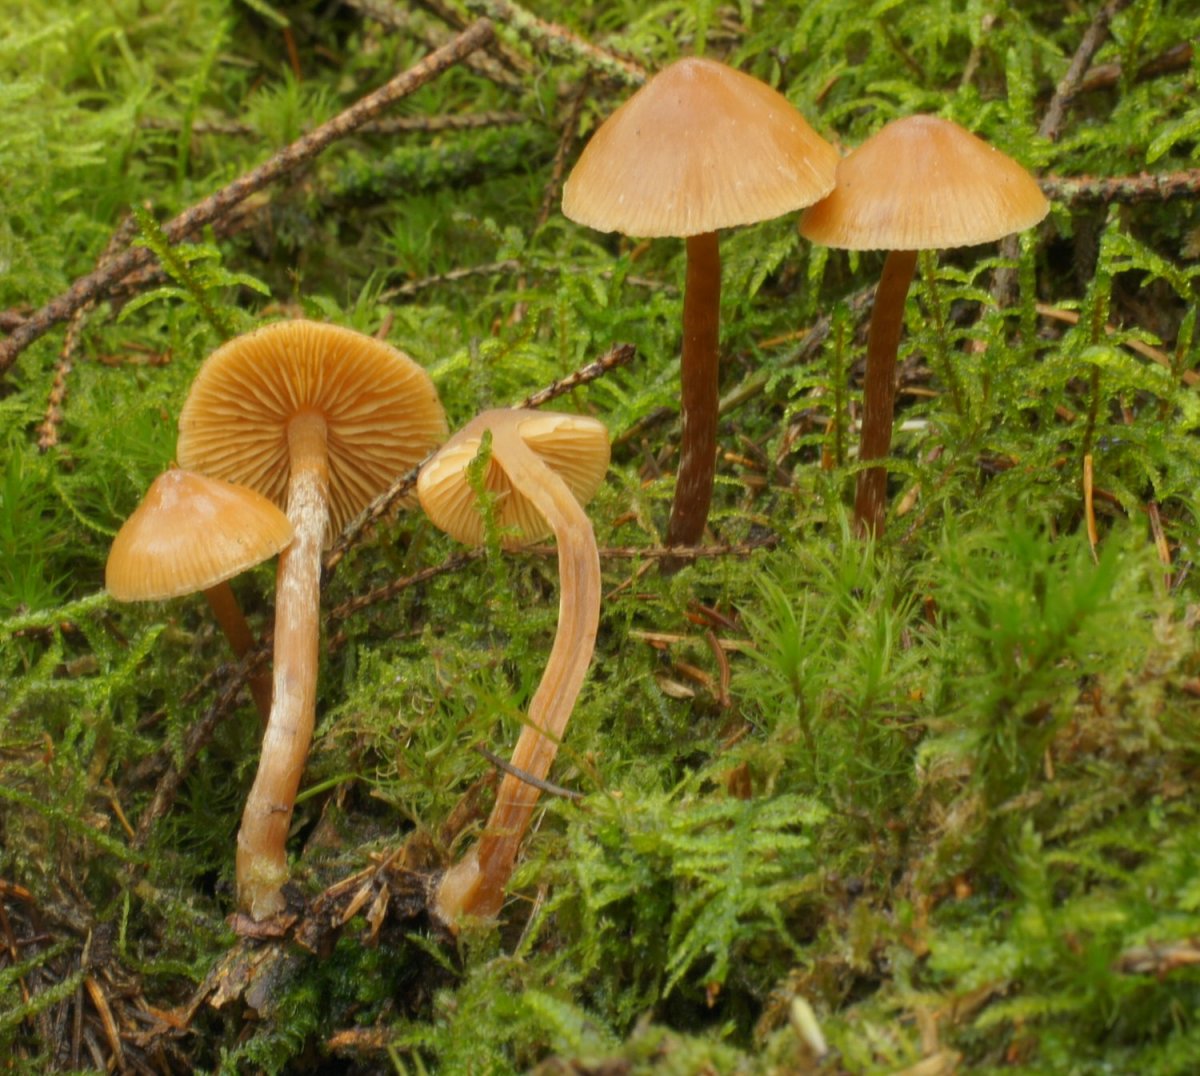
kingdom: Fungi
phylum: Basidiomycota
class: Agaricomycetes
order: Agaricales
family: Hymenogastraceae
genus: Galerina
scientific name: Galerina sideroides
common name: træflis-hjelmhat
